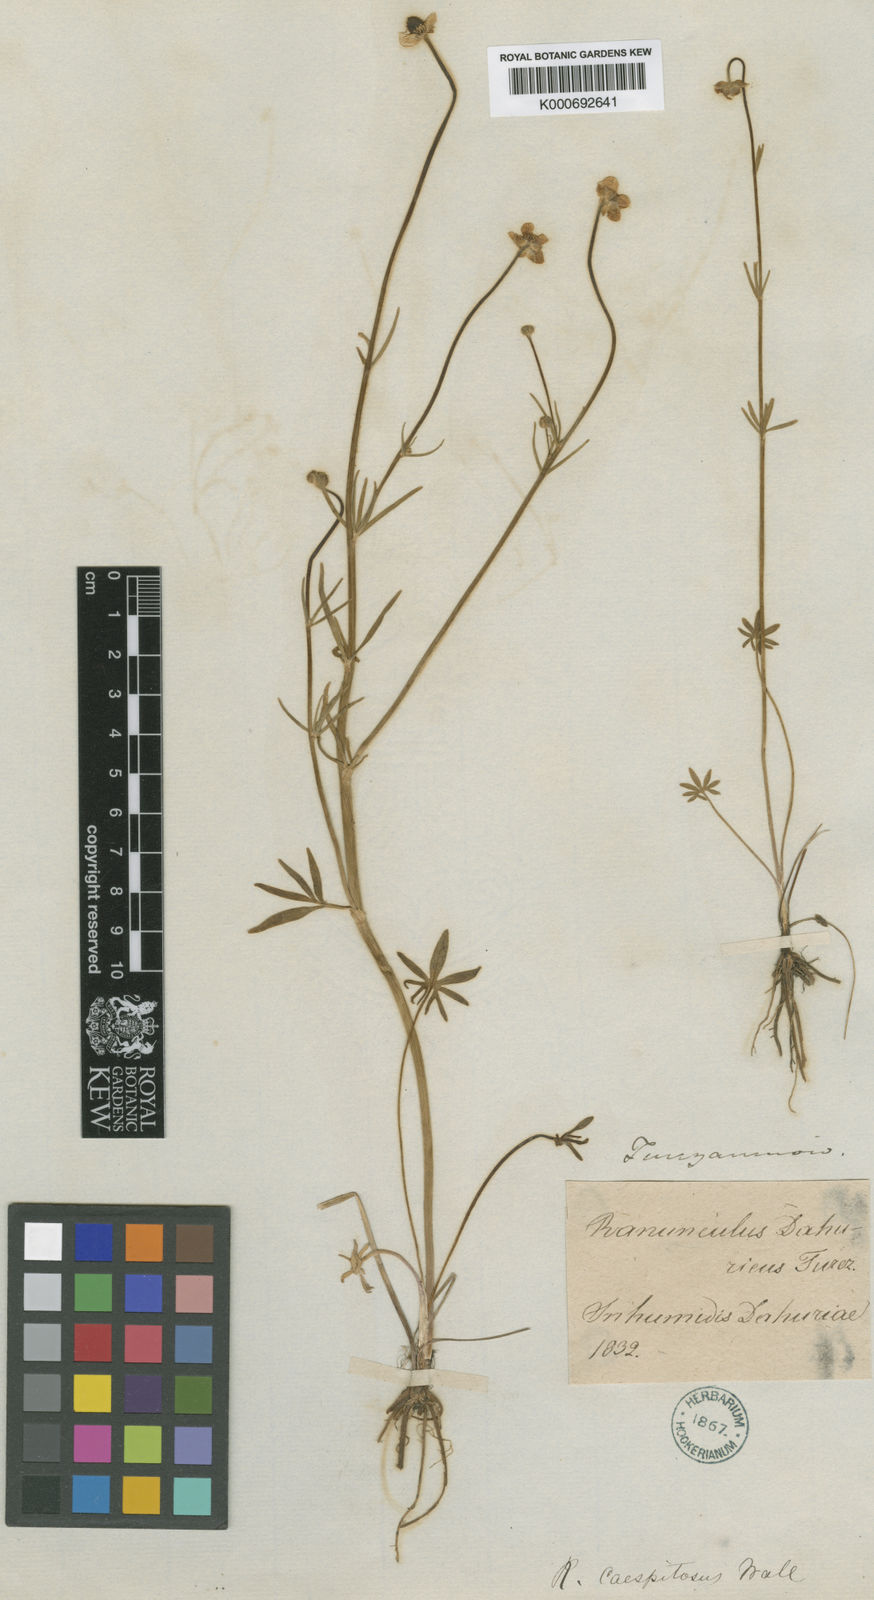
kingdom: Plantae
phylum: Tracheophyta
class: Magnoliopsida
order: Ranunculales
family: Ranunculaceae
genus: Ranunculus
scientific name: Ranunculus karelinii
